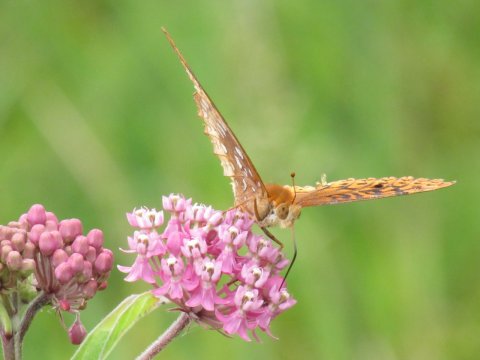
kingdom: Animalia
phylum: Arthropoda
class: Insecta
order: Lepidoptera
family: Nymphalidae
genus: Speyeria
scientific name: Speyeria cybele
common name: Great Spangled Fritillary
